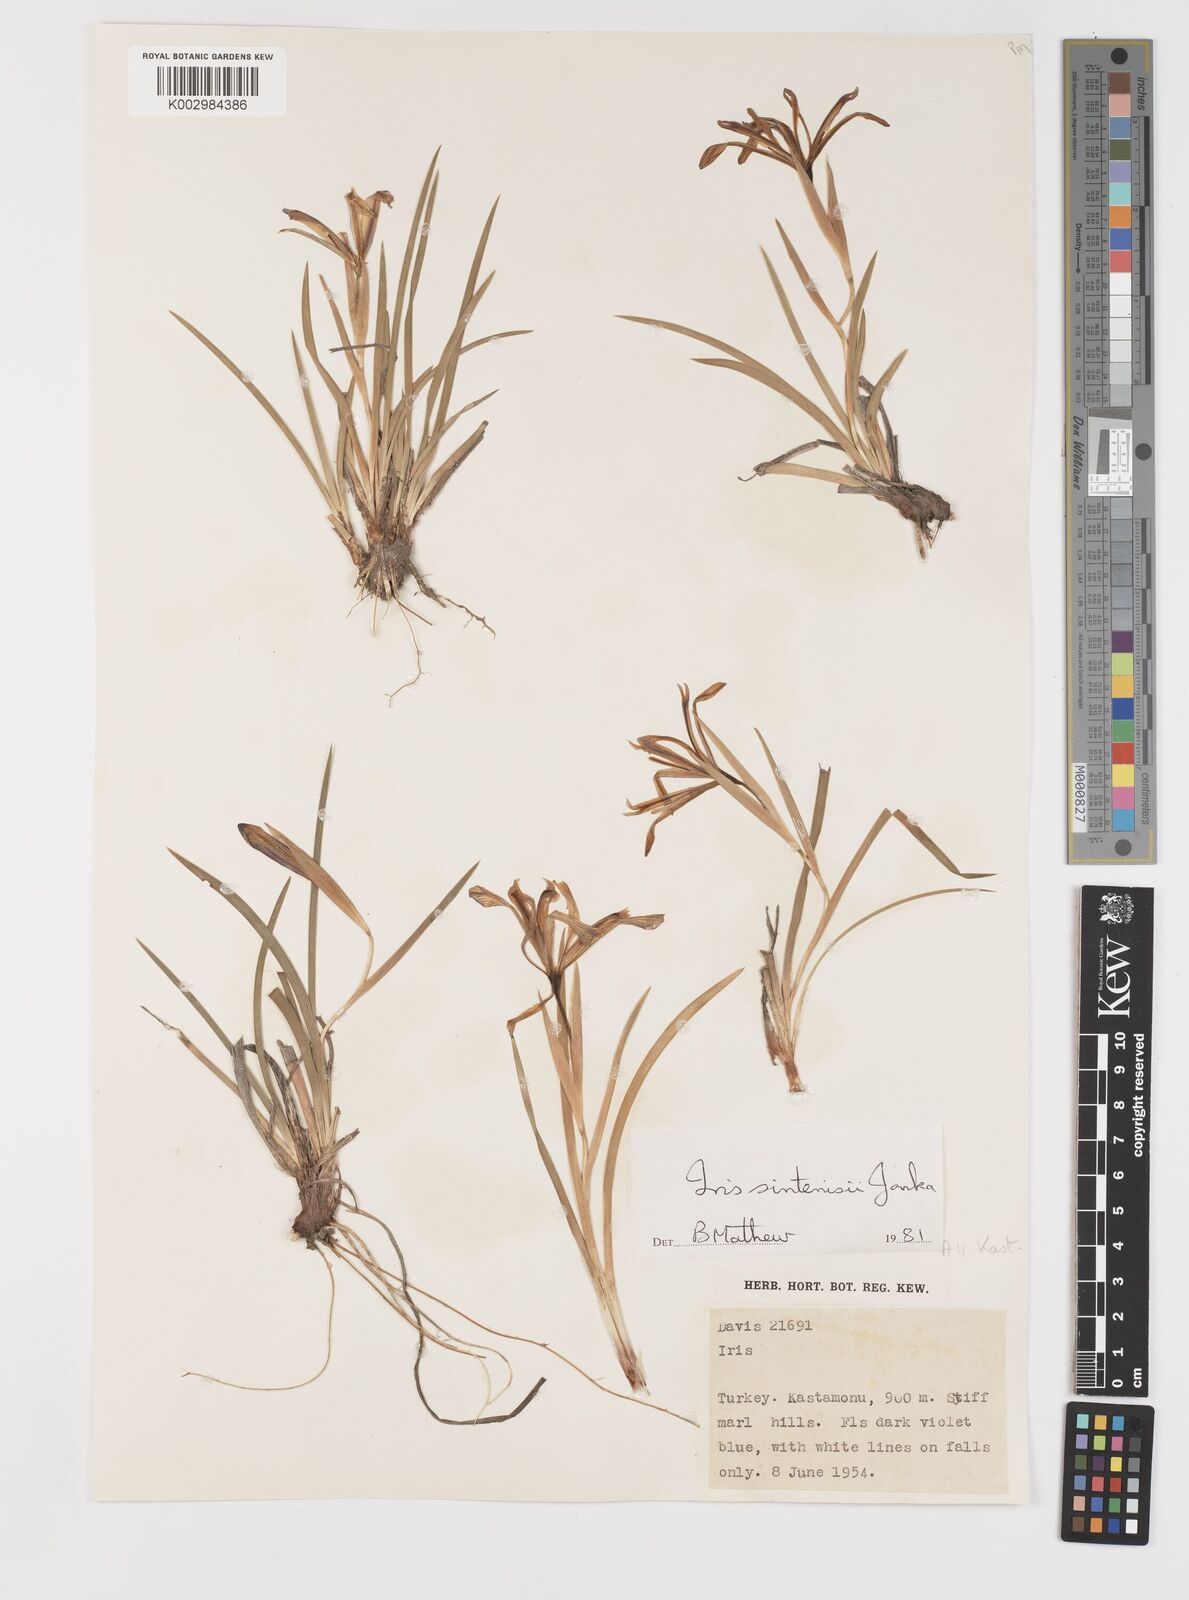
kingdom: Plantae
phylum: Tracheophyta
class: Liliopsida
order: Asparagales
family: Iridaceae
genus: Iris
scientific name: Iris sintenisii
